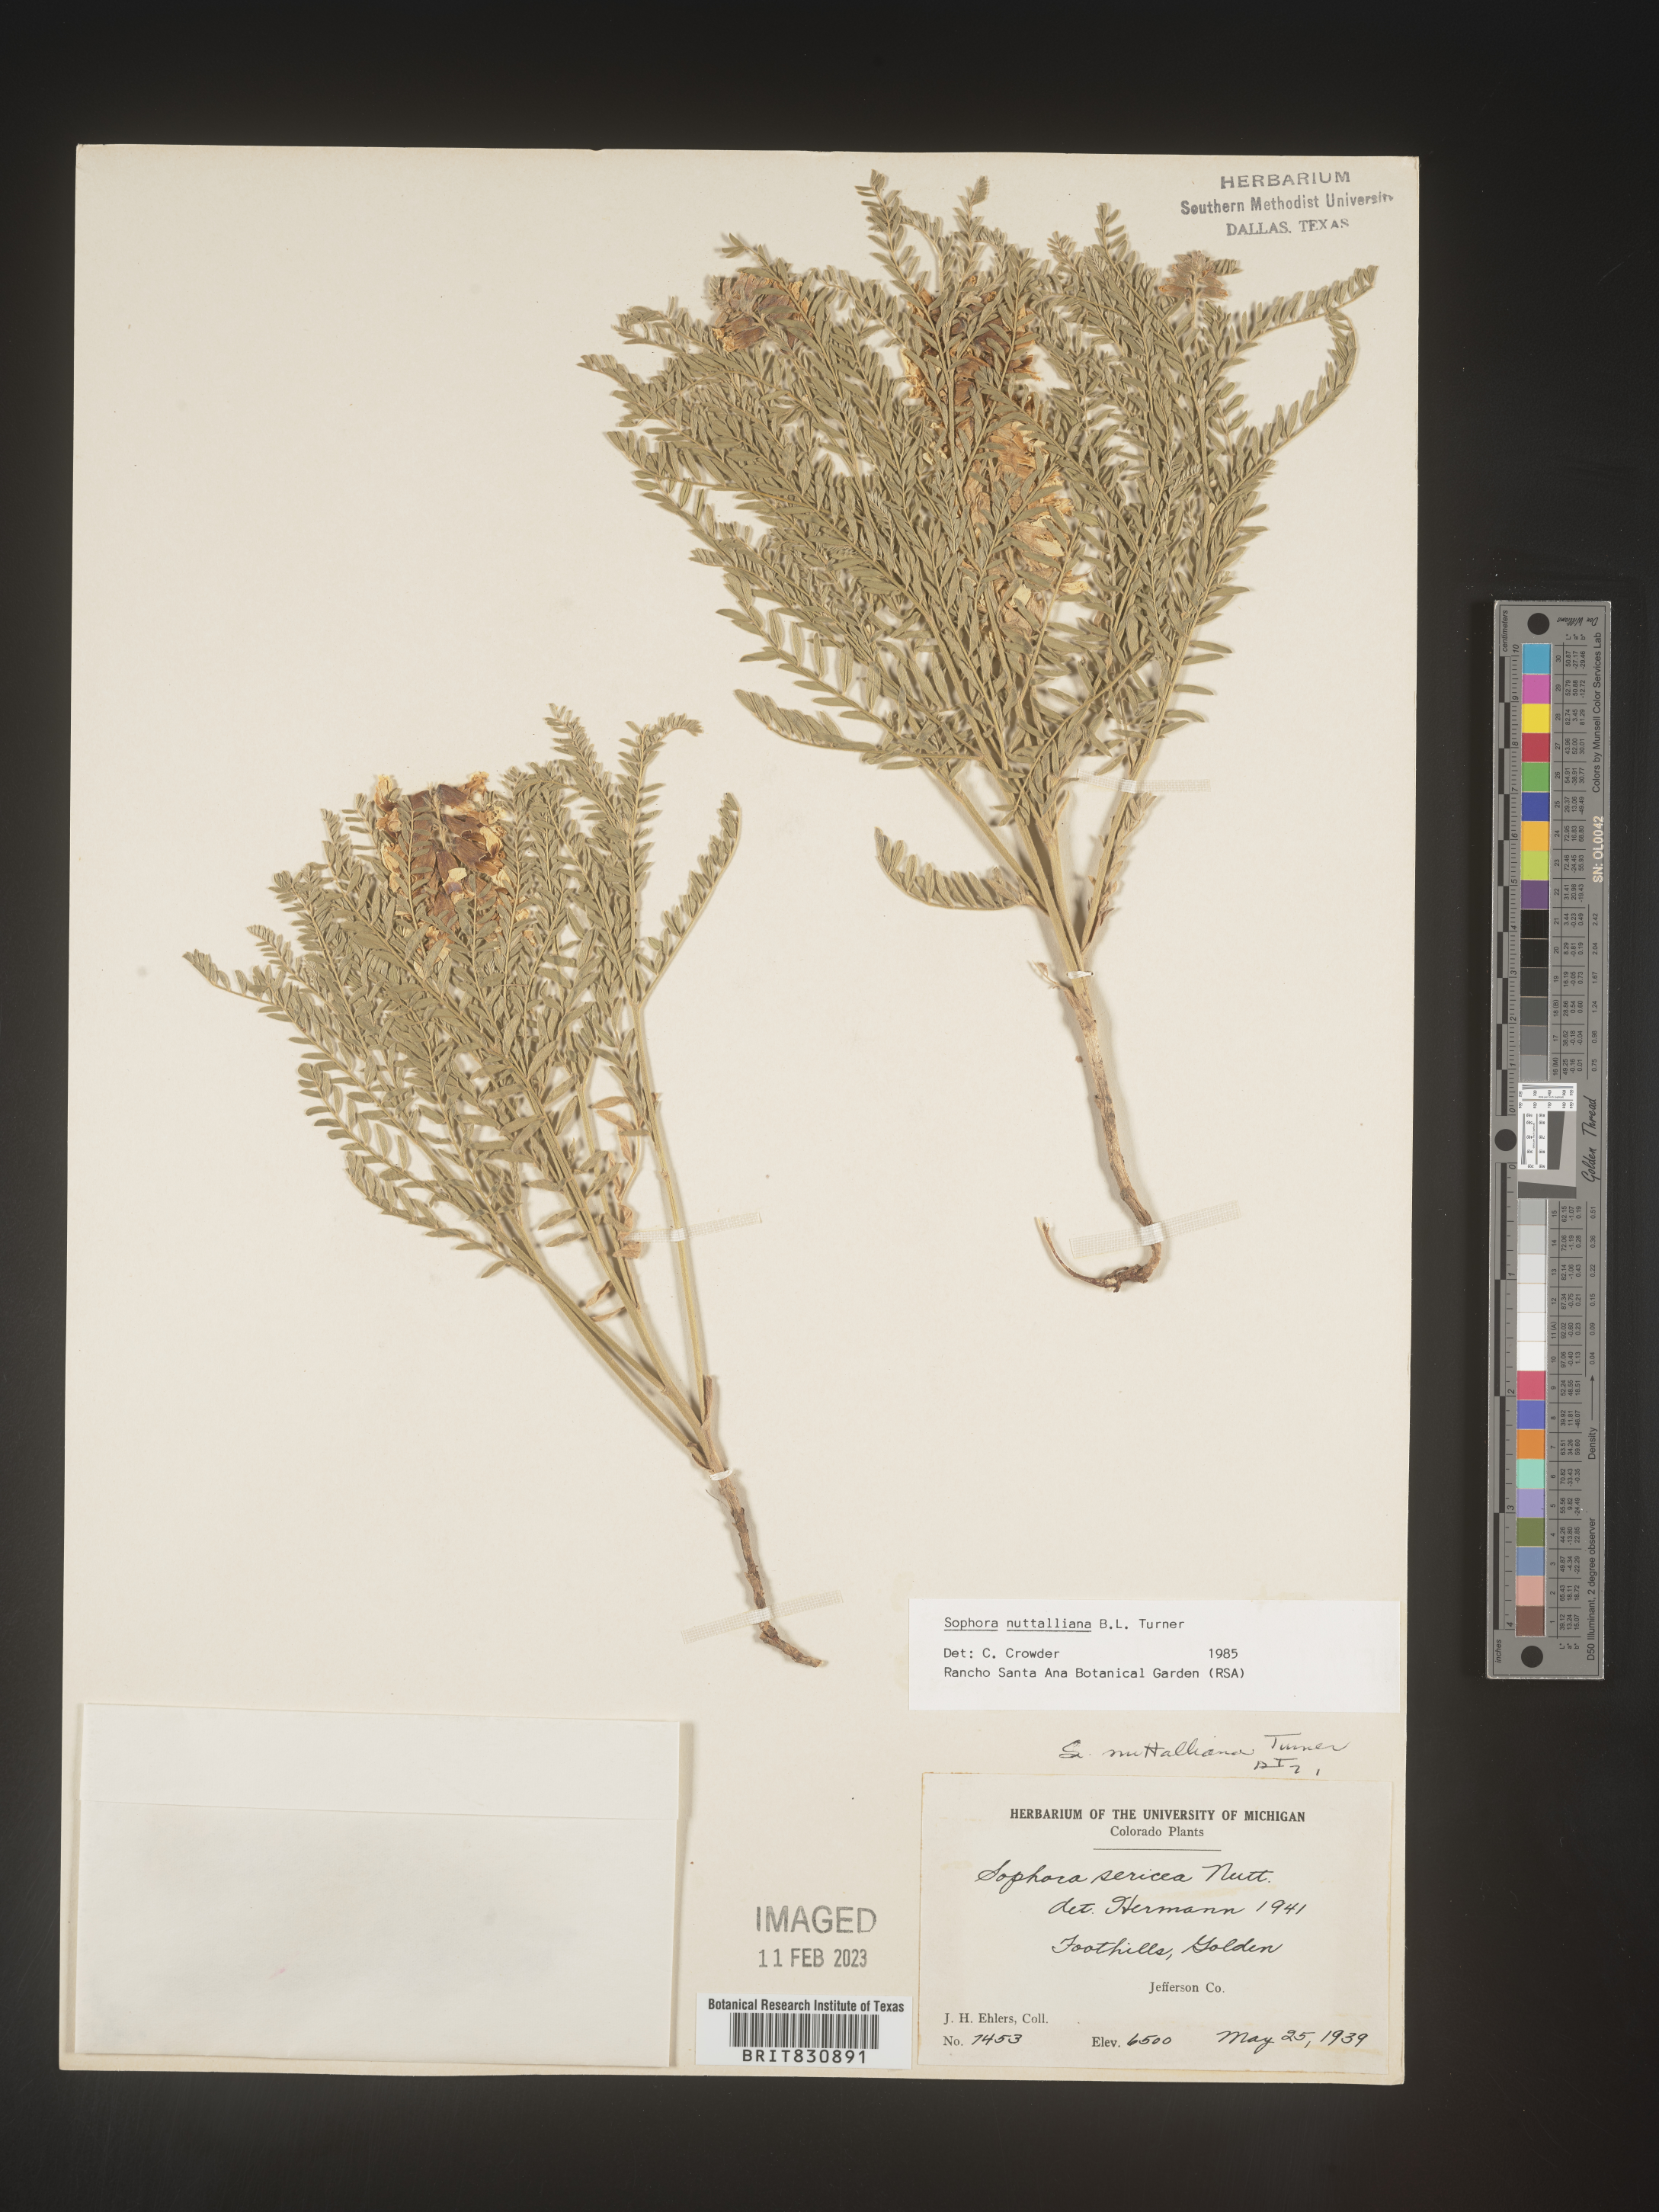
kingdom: Plantae
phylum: Tracheophyta
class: Magnoliopsida
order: Fabales
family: Fabaceae
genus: Sophora
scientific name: Sophora nuttalliana
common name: Silky sophora
